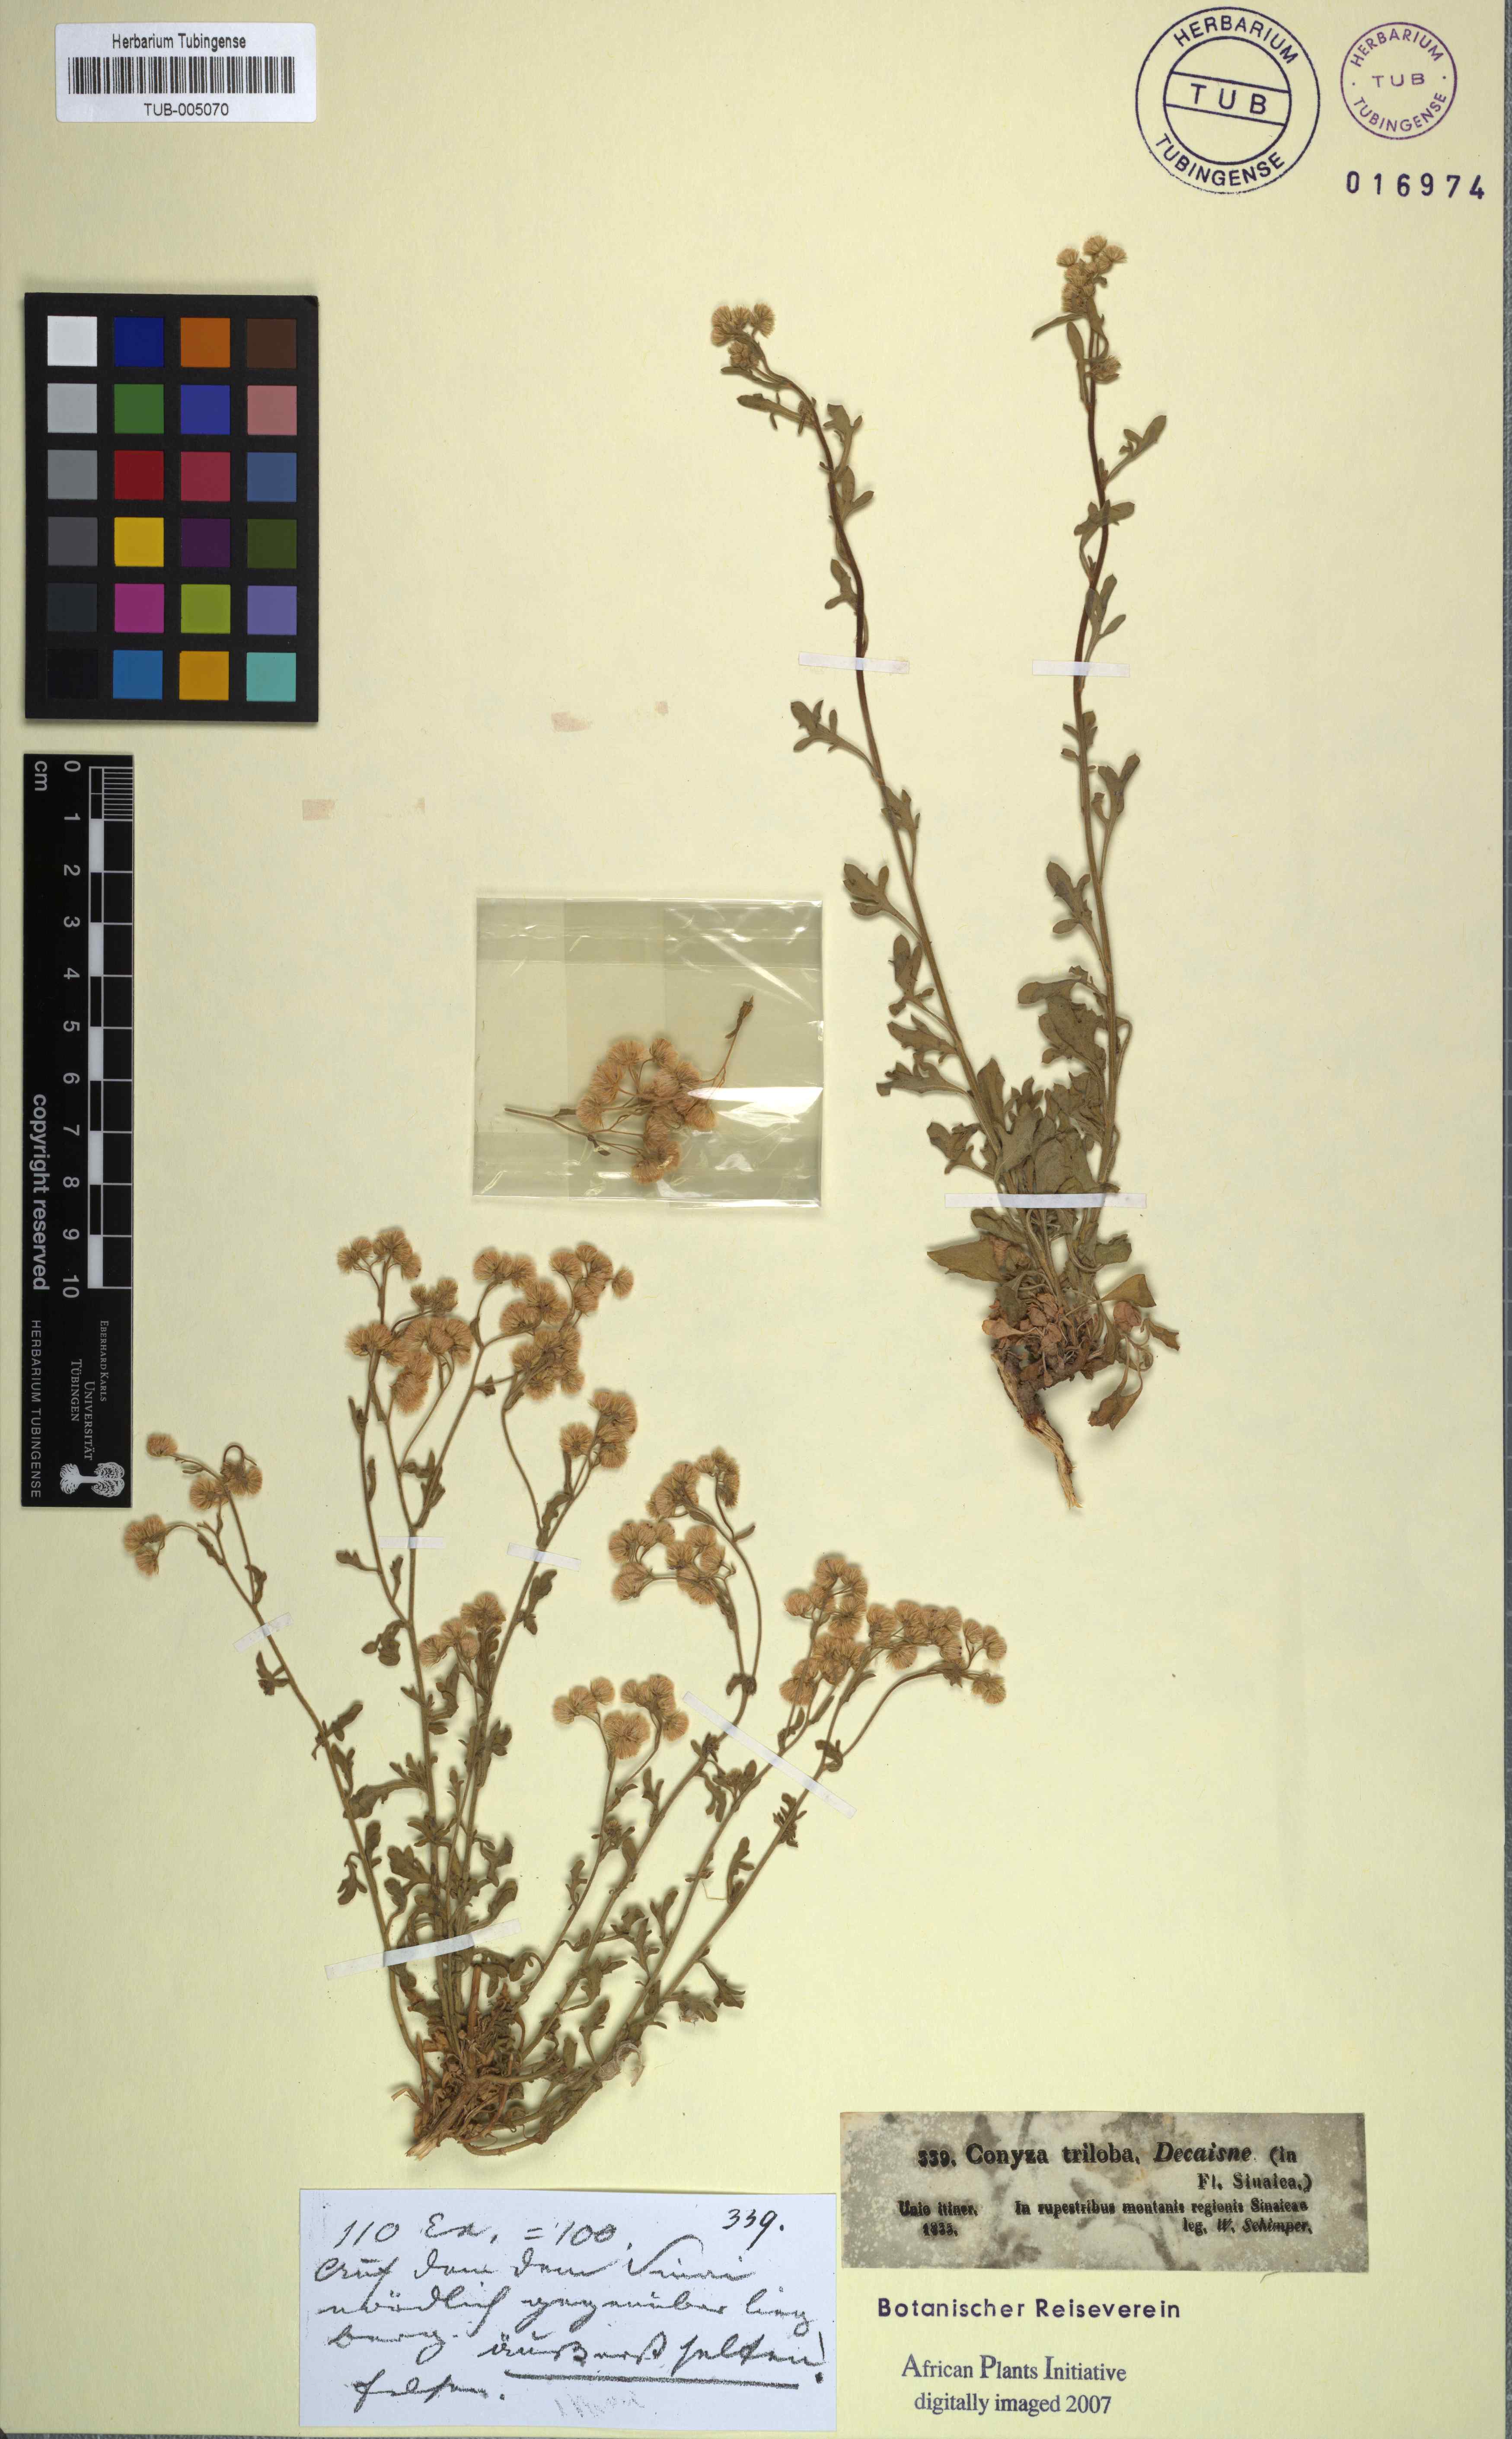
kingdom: Plantae
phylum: Tracheophyta
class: Magnoliopsida
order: Asterales
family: Asteraceae
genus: Nidorella
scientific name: Nidorella triloba
